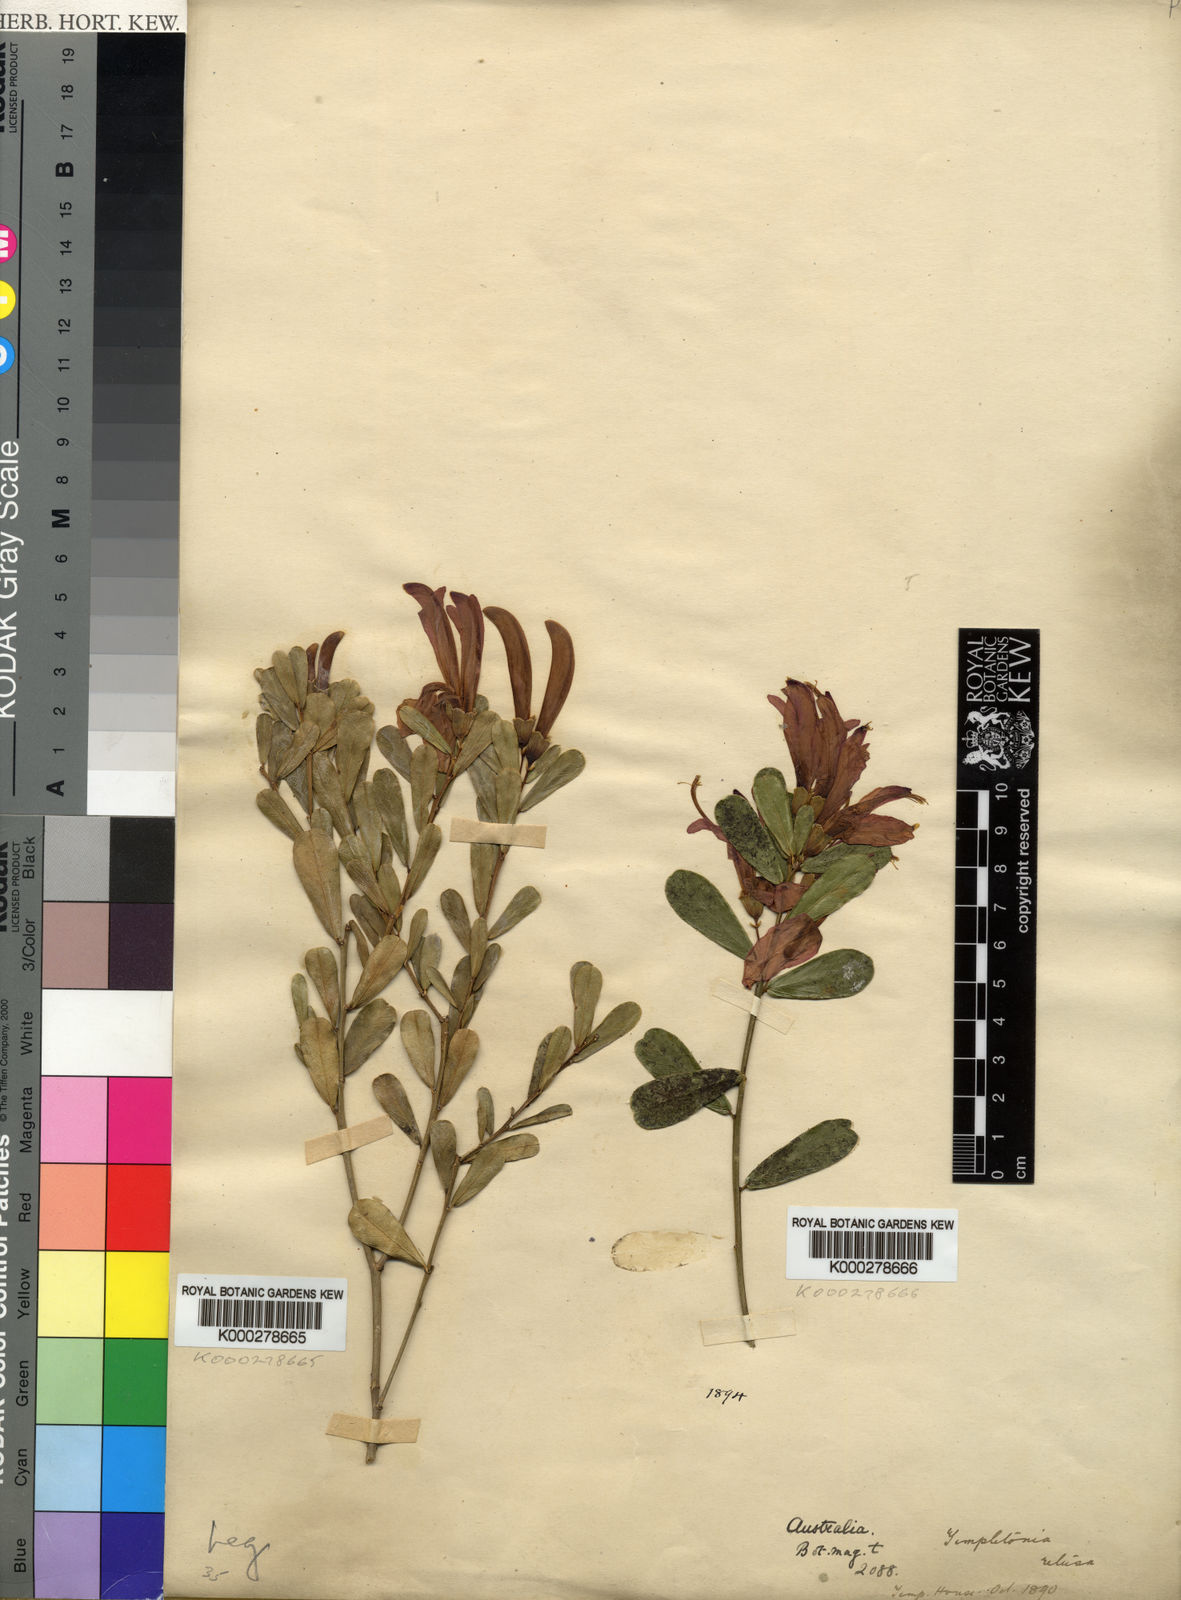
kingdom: Plantae
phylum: Tracheophyta
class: Magnoliopsida
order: Fabales
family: Fabaceae
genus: Templetonia
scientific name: Templetonia retusa
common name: Cockies'-tongue
